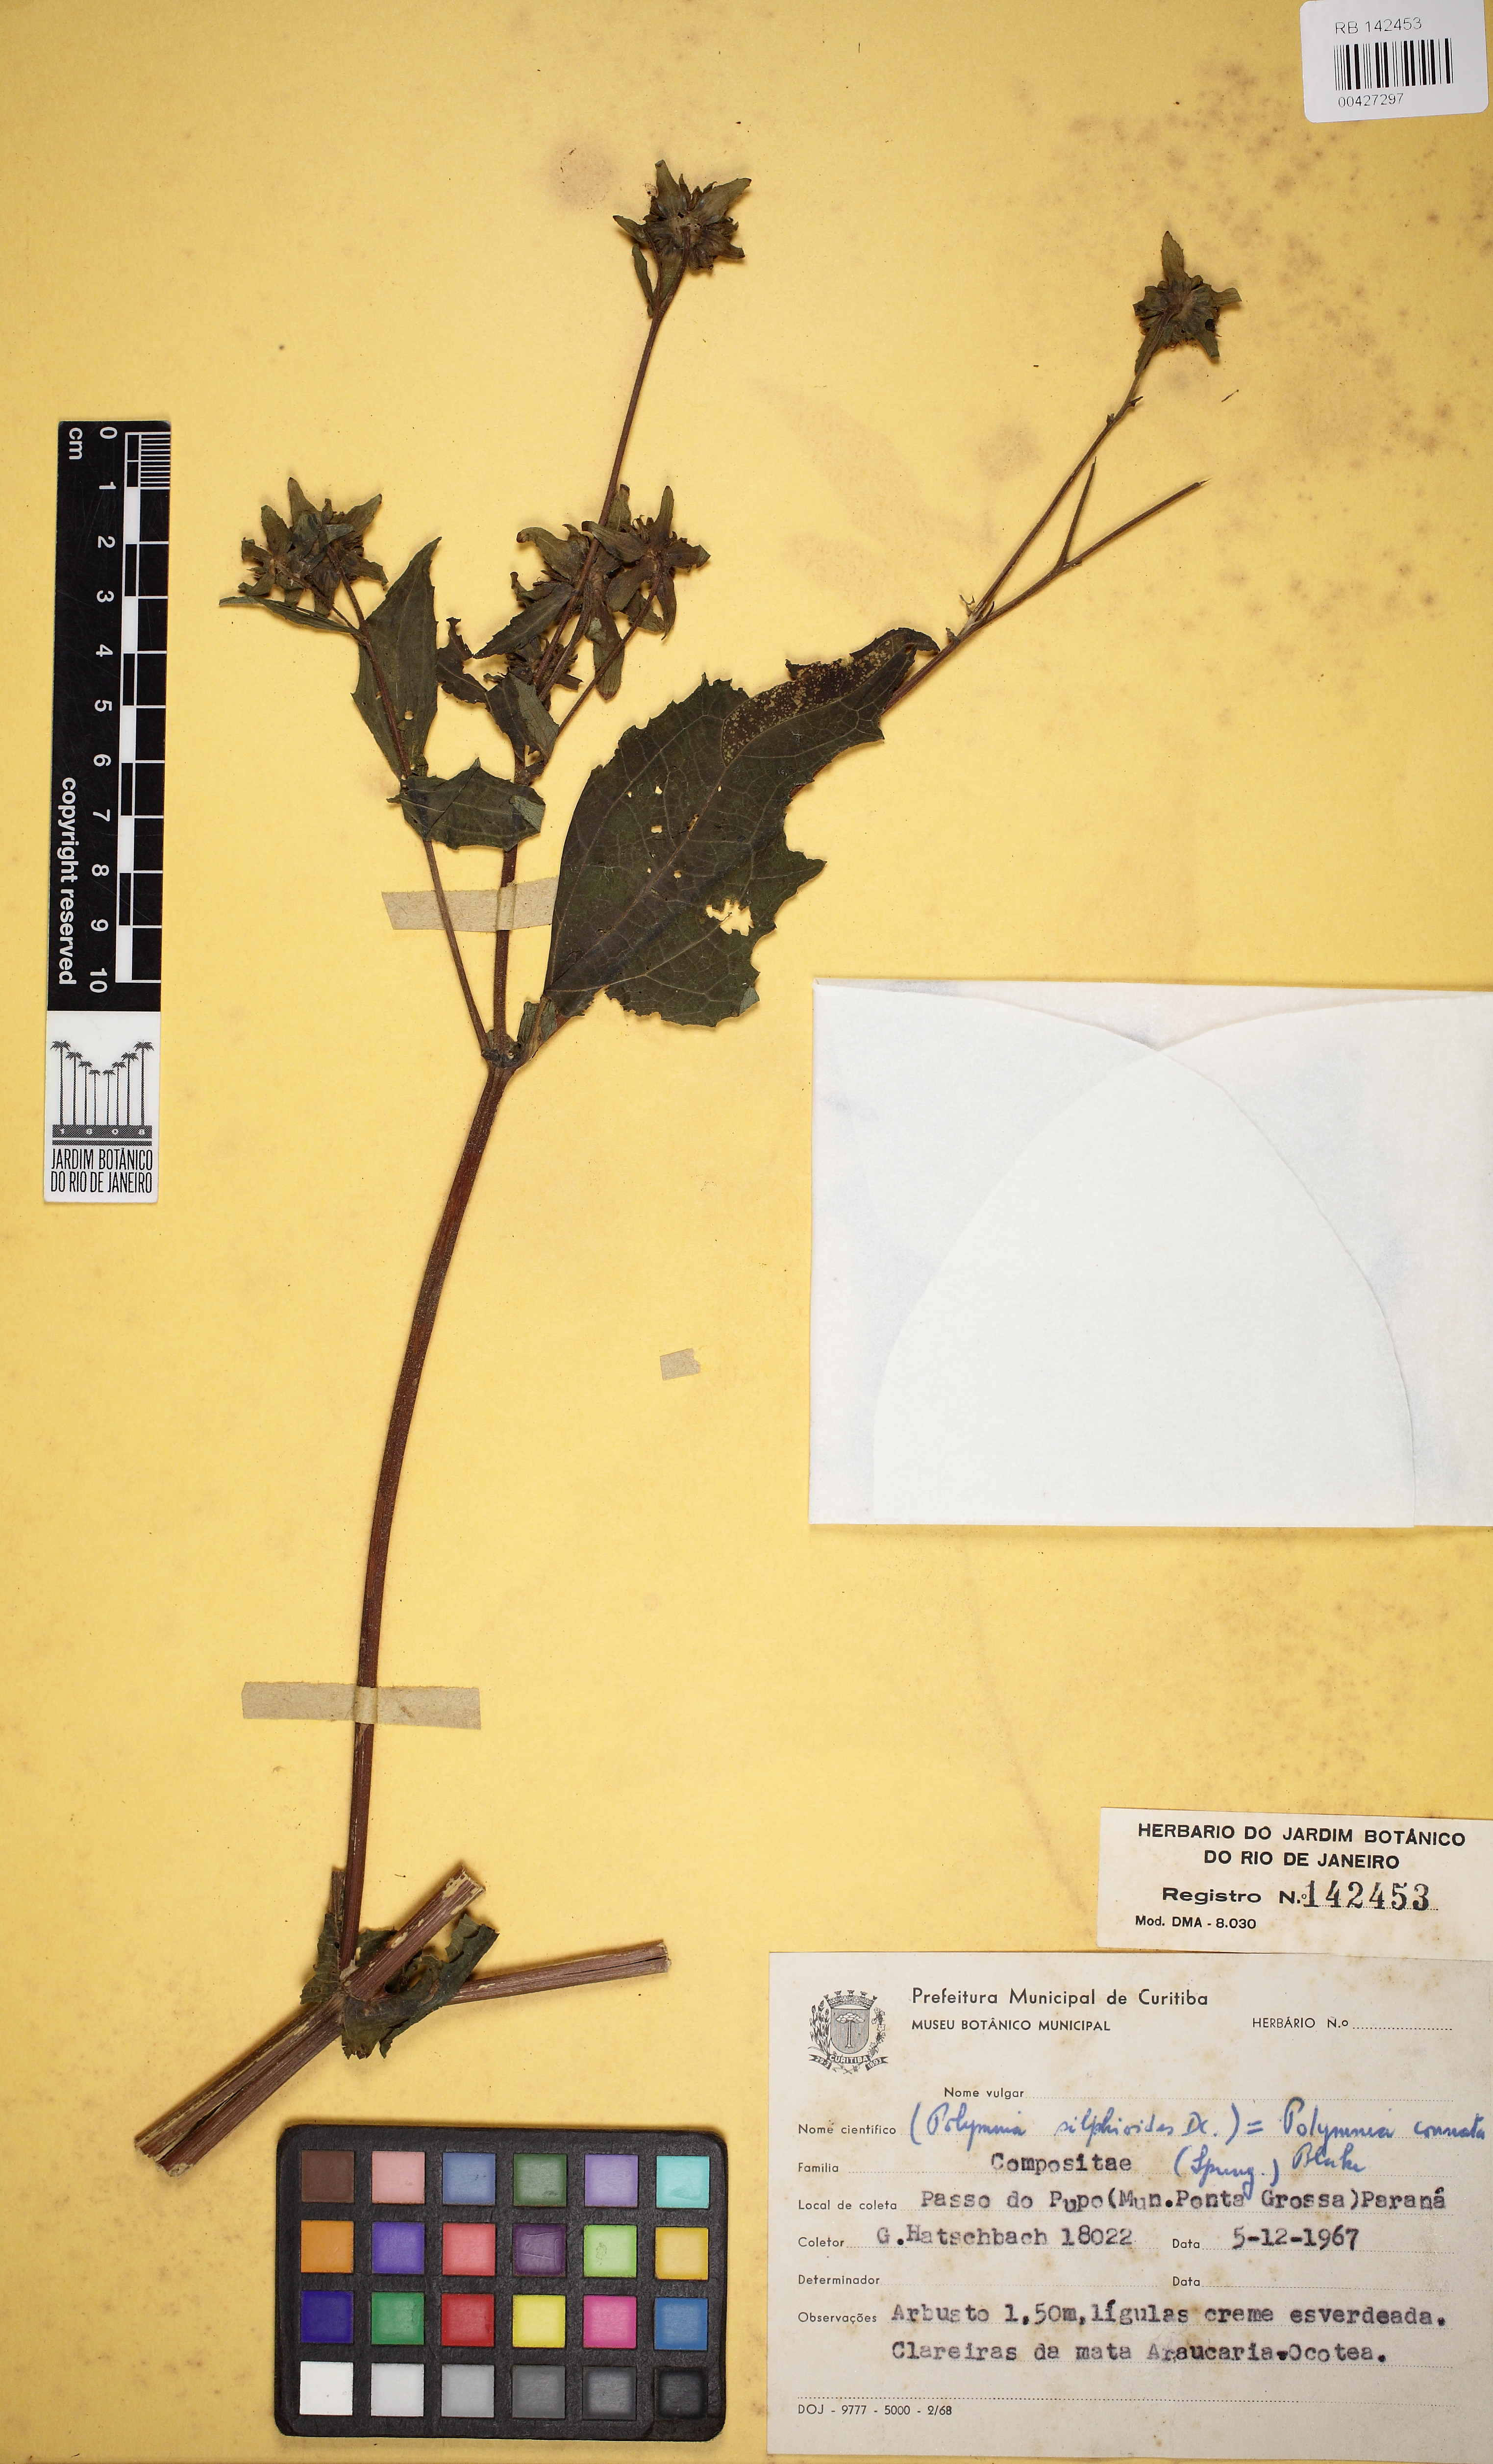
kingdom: Plantae
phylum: Tracheophyta
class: Magnoliopsida
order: Asterales
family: Asteraceae
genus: Smallanthus
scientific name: Smallanthus connatus
